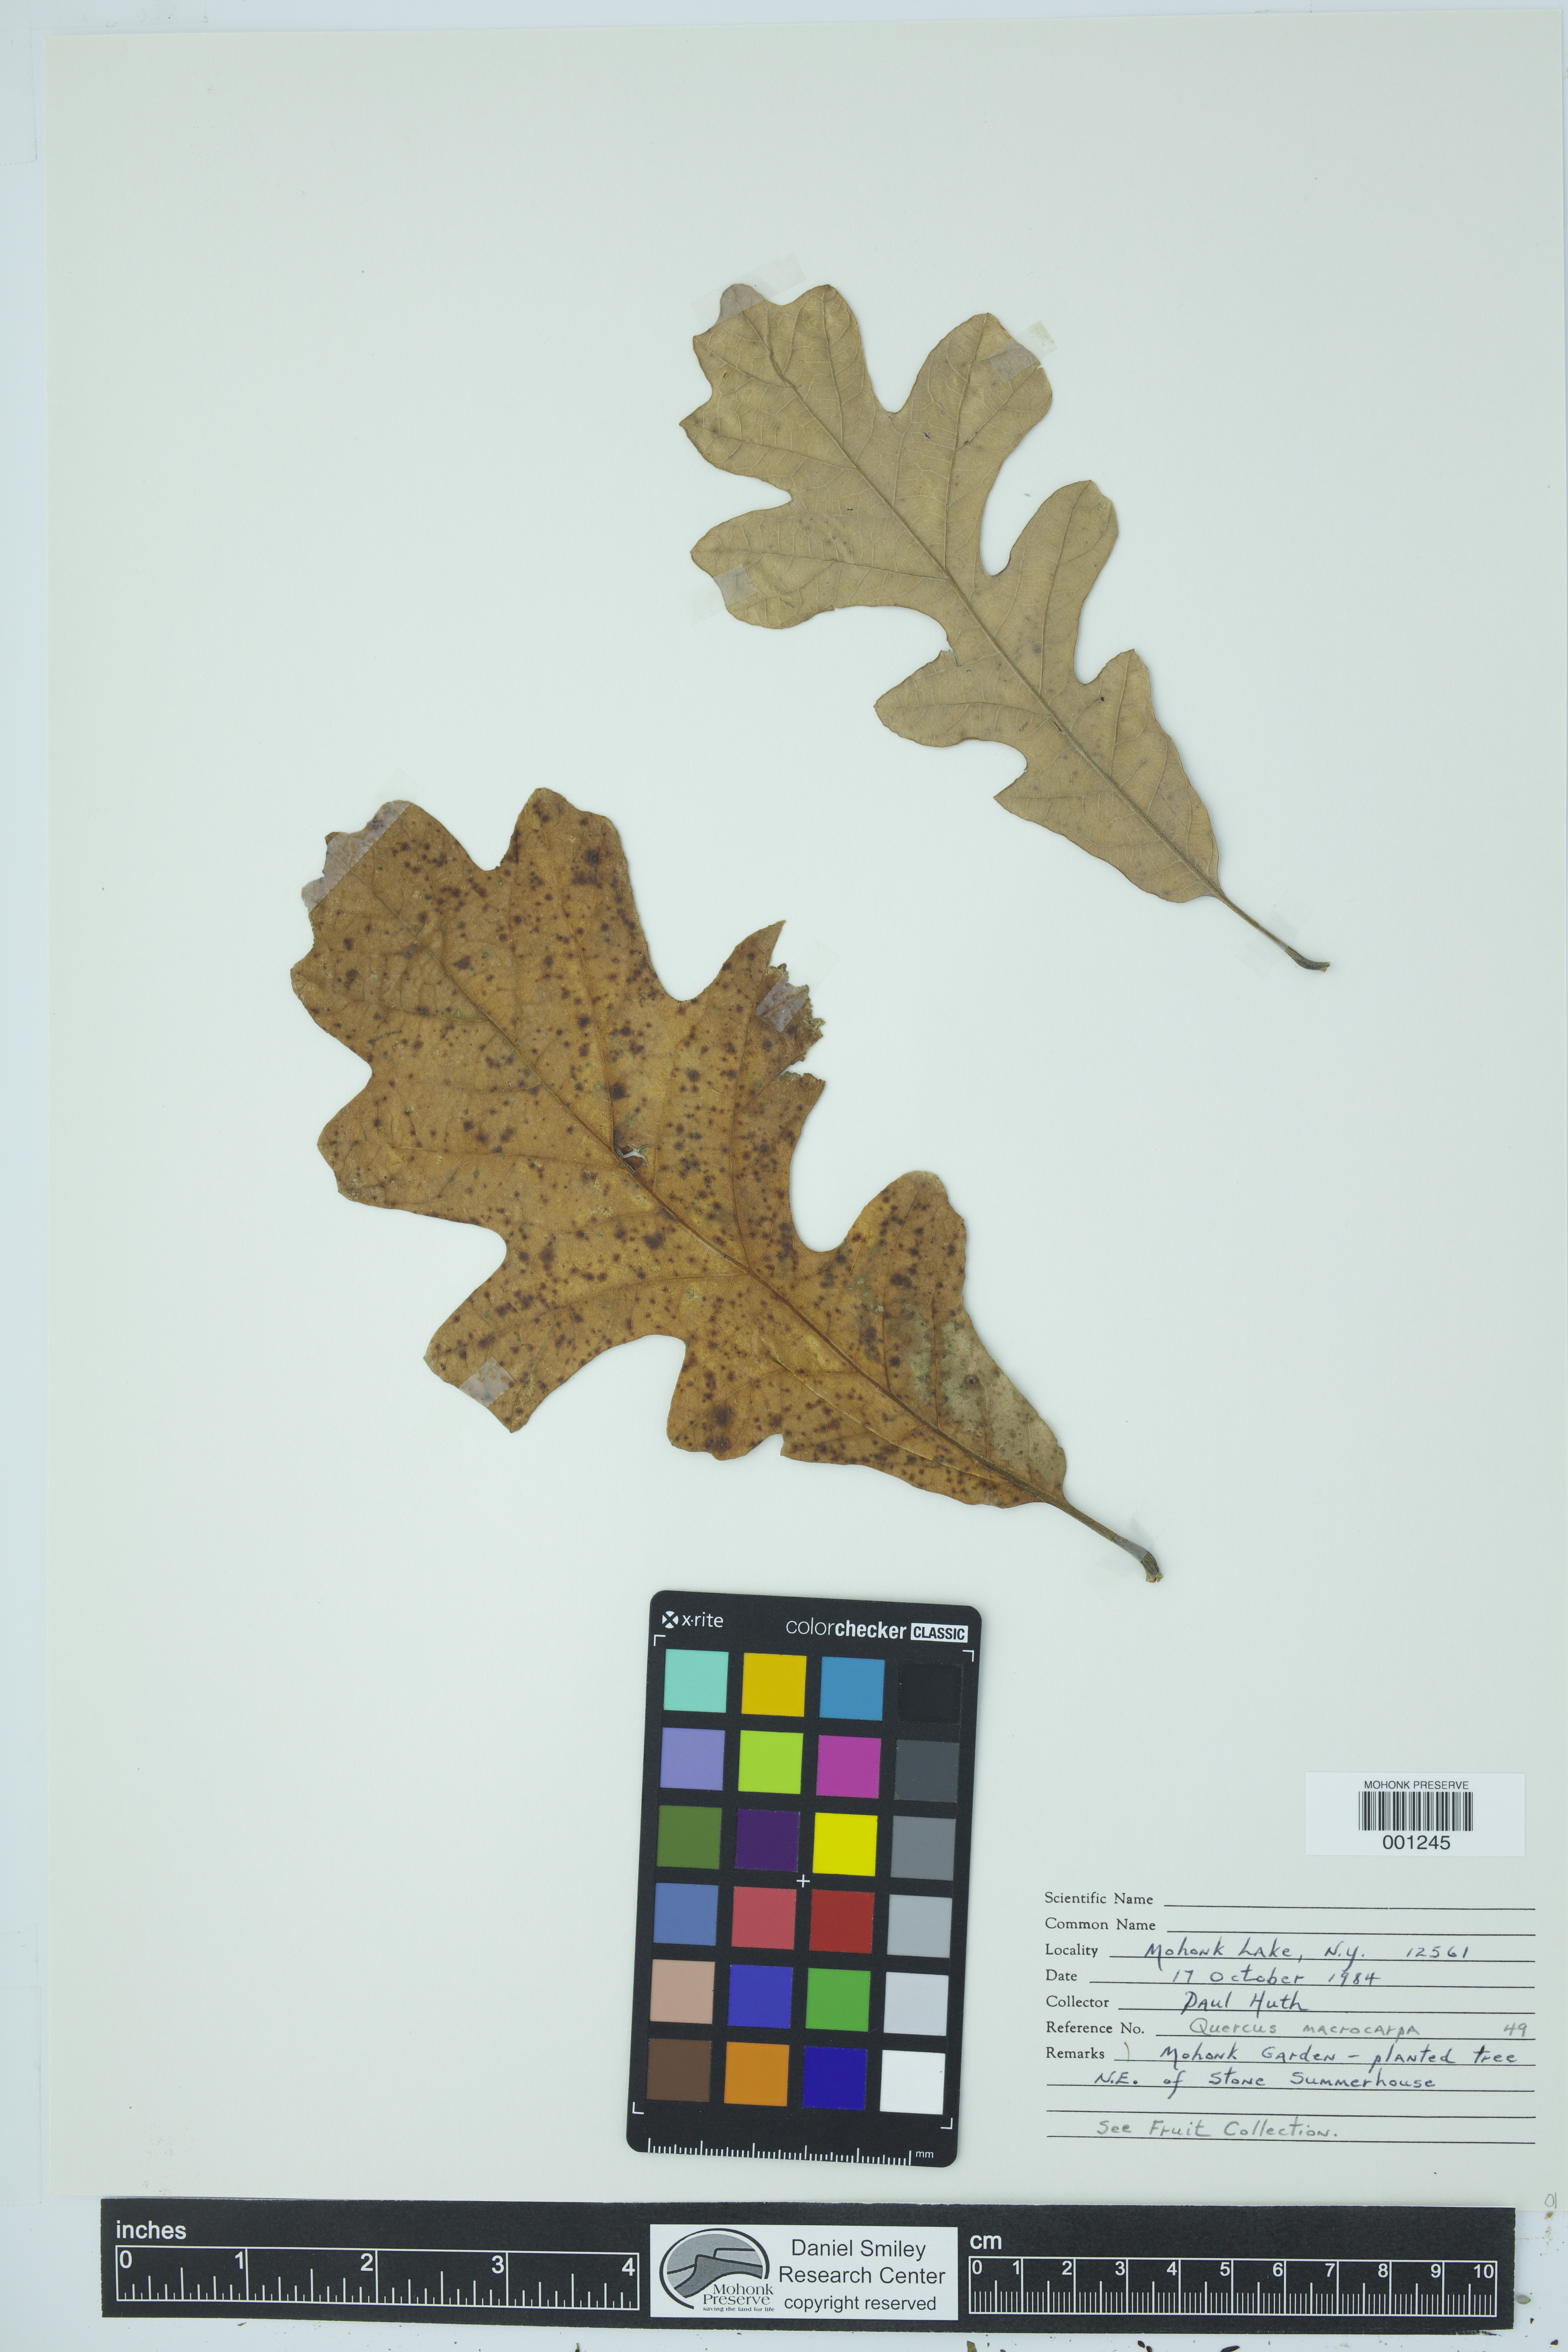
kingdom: Plantae
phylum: Tracheophyta
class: Magnoliopsida
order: Fagales
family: Fagaceae
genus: Quercus
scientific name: Quercus macrocarpa
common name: Bur oak
